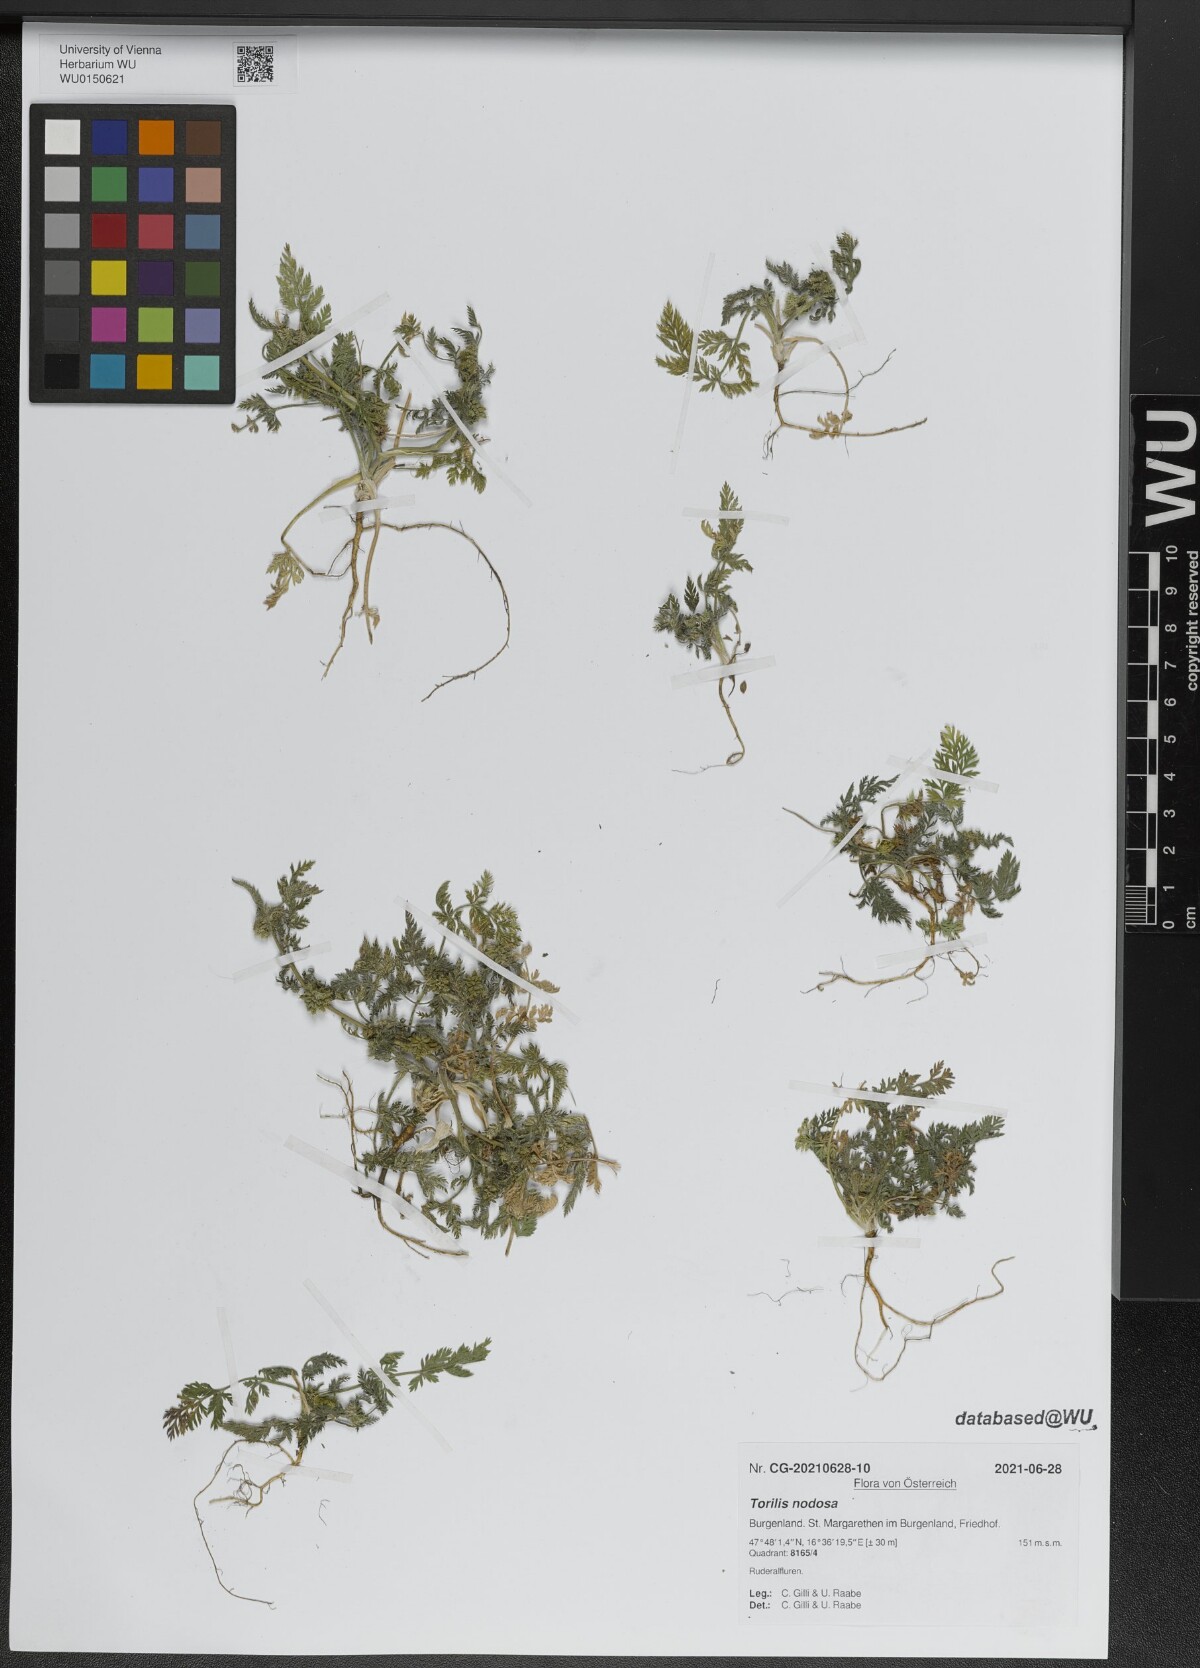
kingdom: Plantae
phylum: Tracheophyta
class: Magnoliopsida
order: Apiales
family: Apiaceae
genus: Torilis
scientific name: Torilis nodosa
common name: Knotted hedge-parsley
